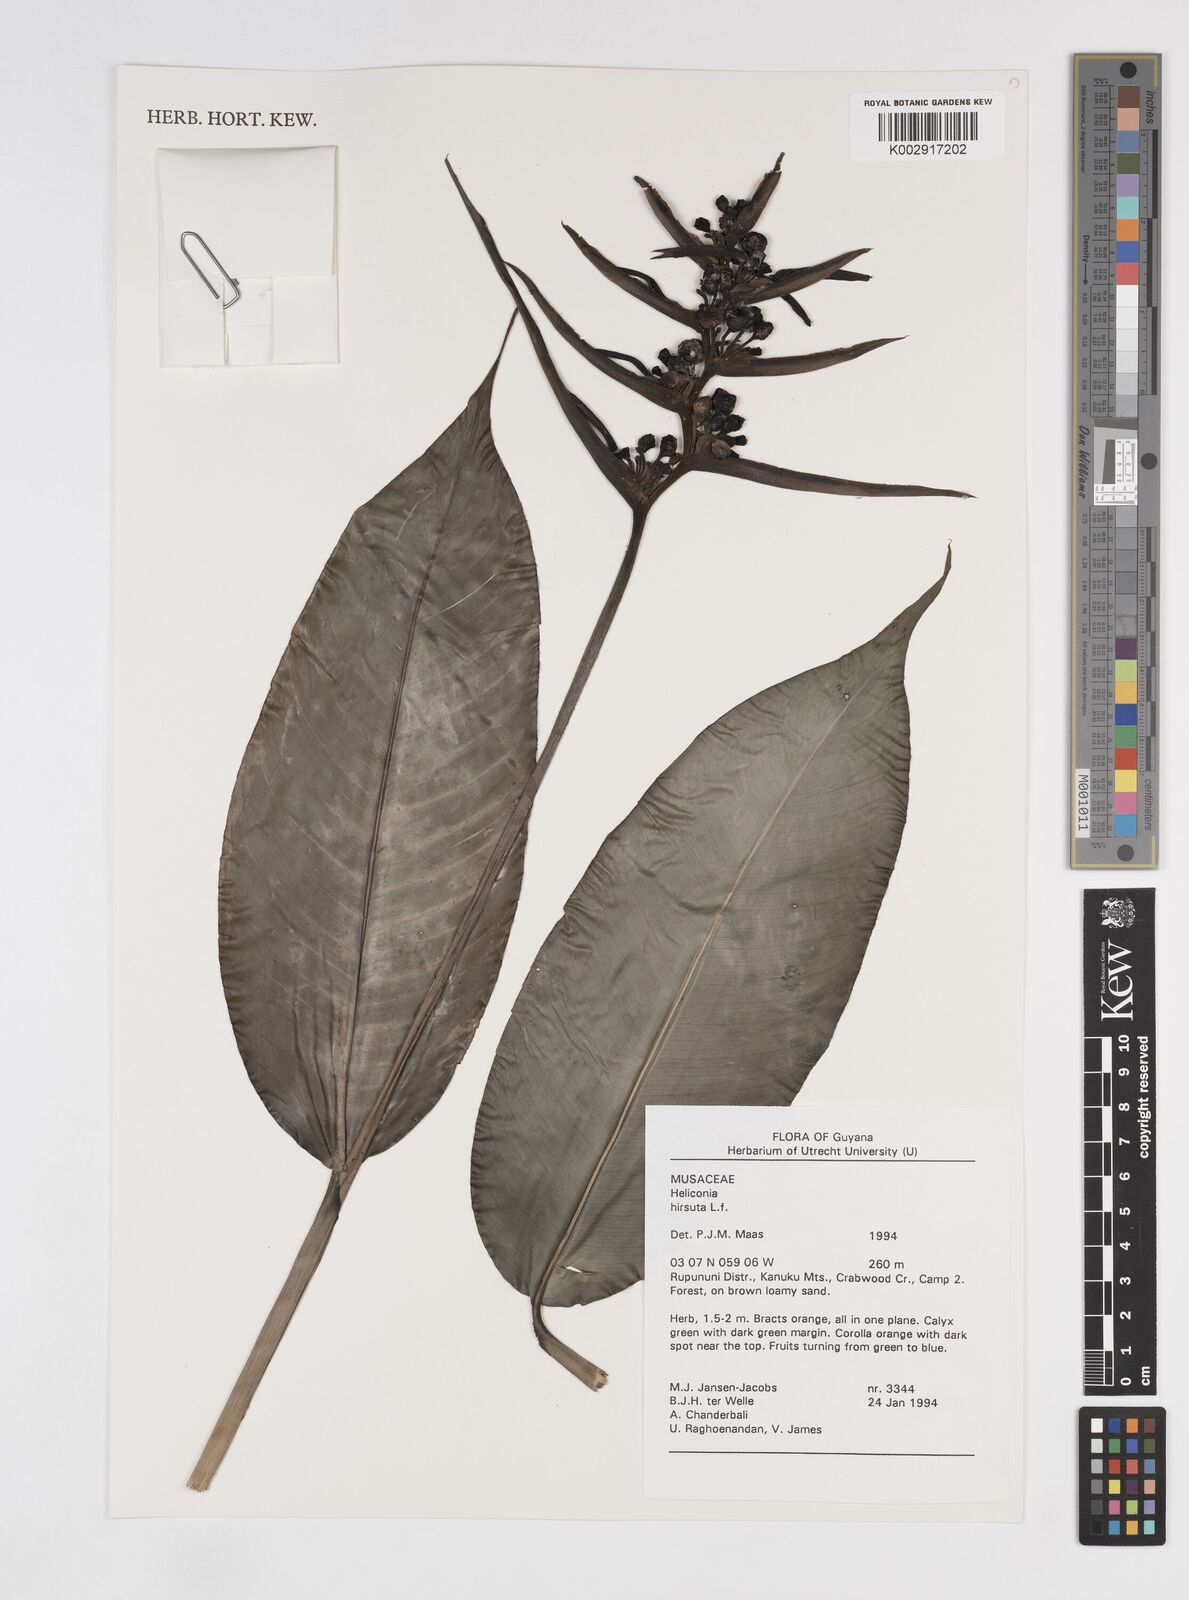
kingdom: Plantae
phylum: Tracheophyta
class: Liliopsida
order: Zingiberales
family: Heliconiaceae
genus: Heliconia
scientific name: Heliconia hirsuta
